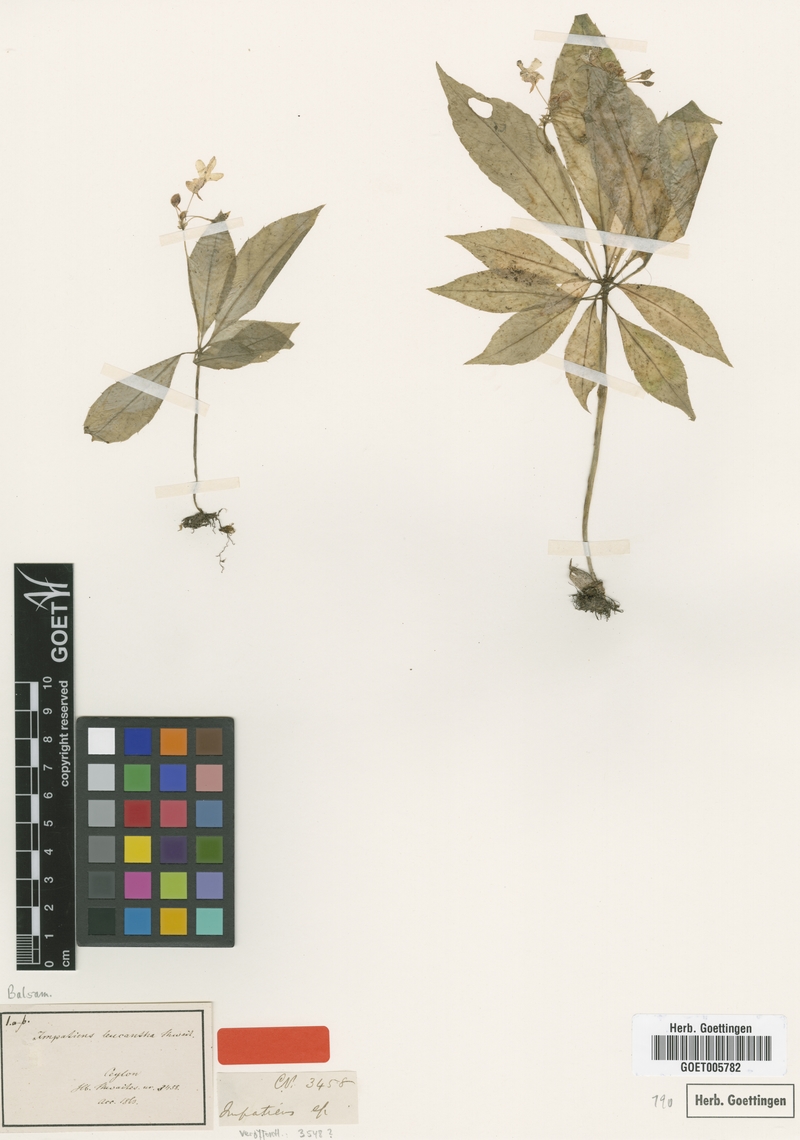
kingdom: Plantae
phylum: Tracheophyta
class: Magnoliopsida
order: Ericales
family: Balsaminaceae
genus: Impatiens
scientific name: Impatiens leucantha
